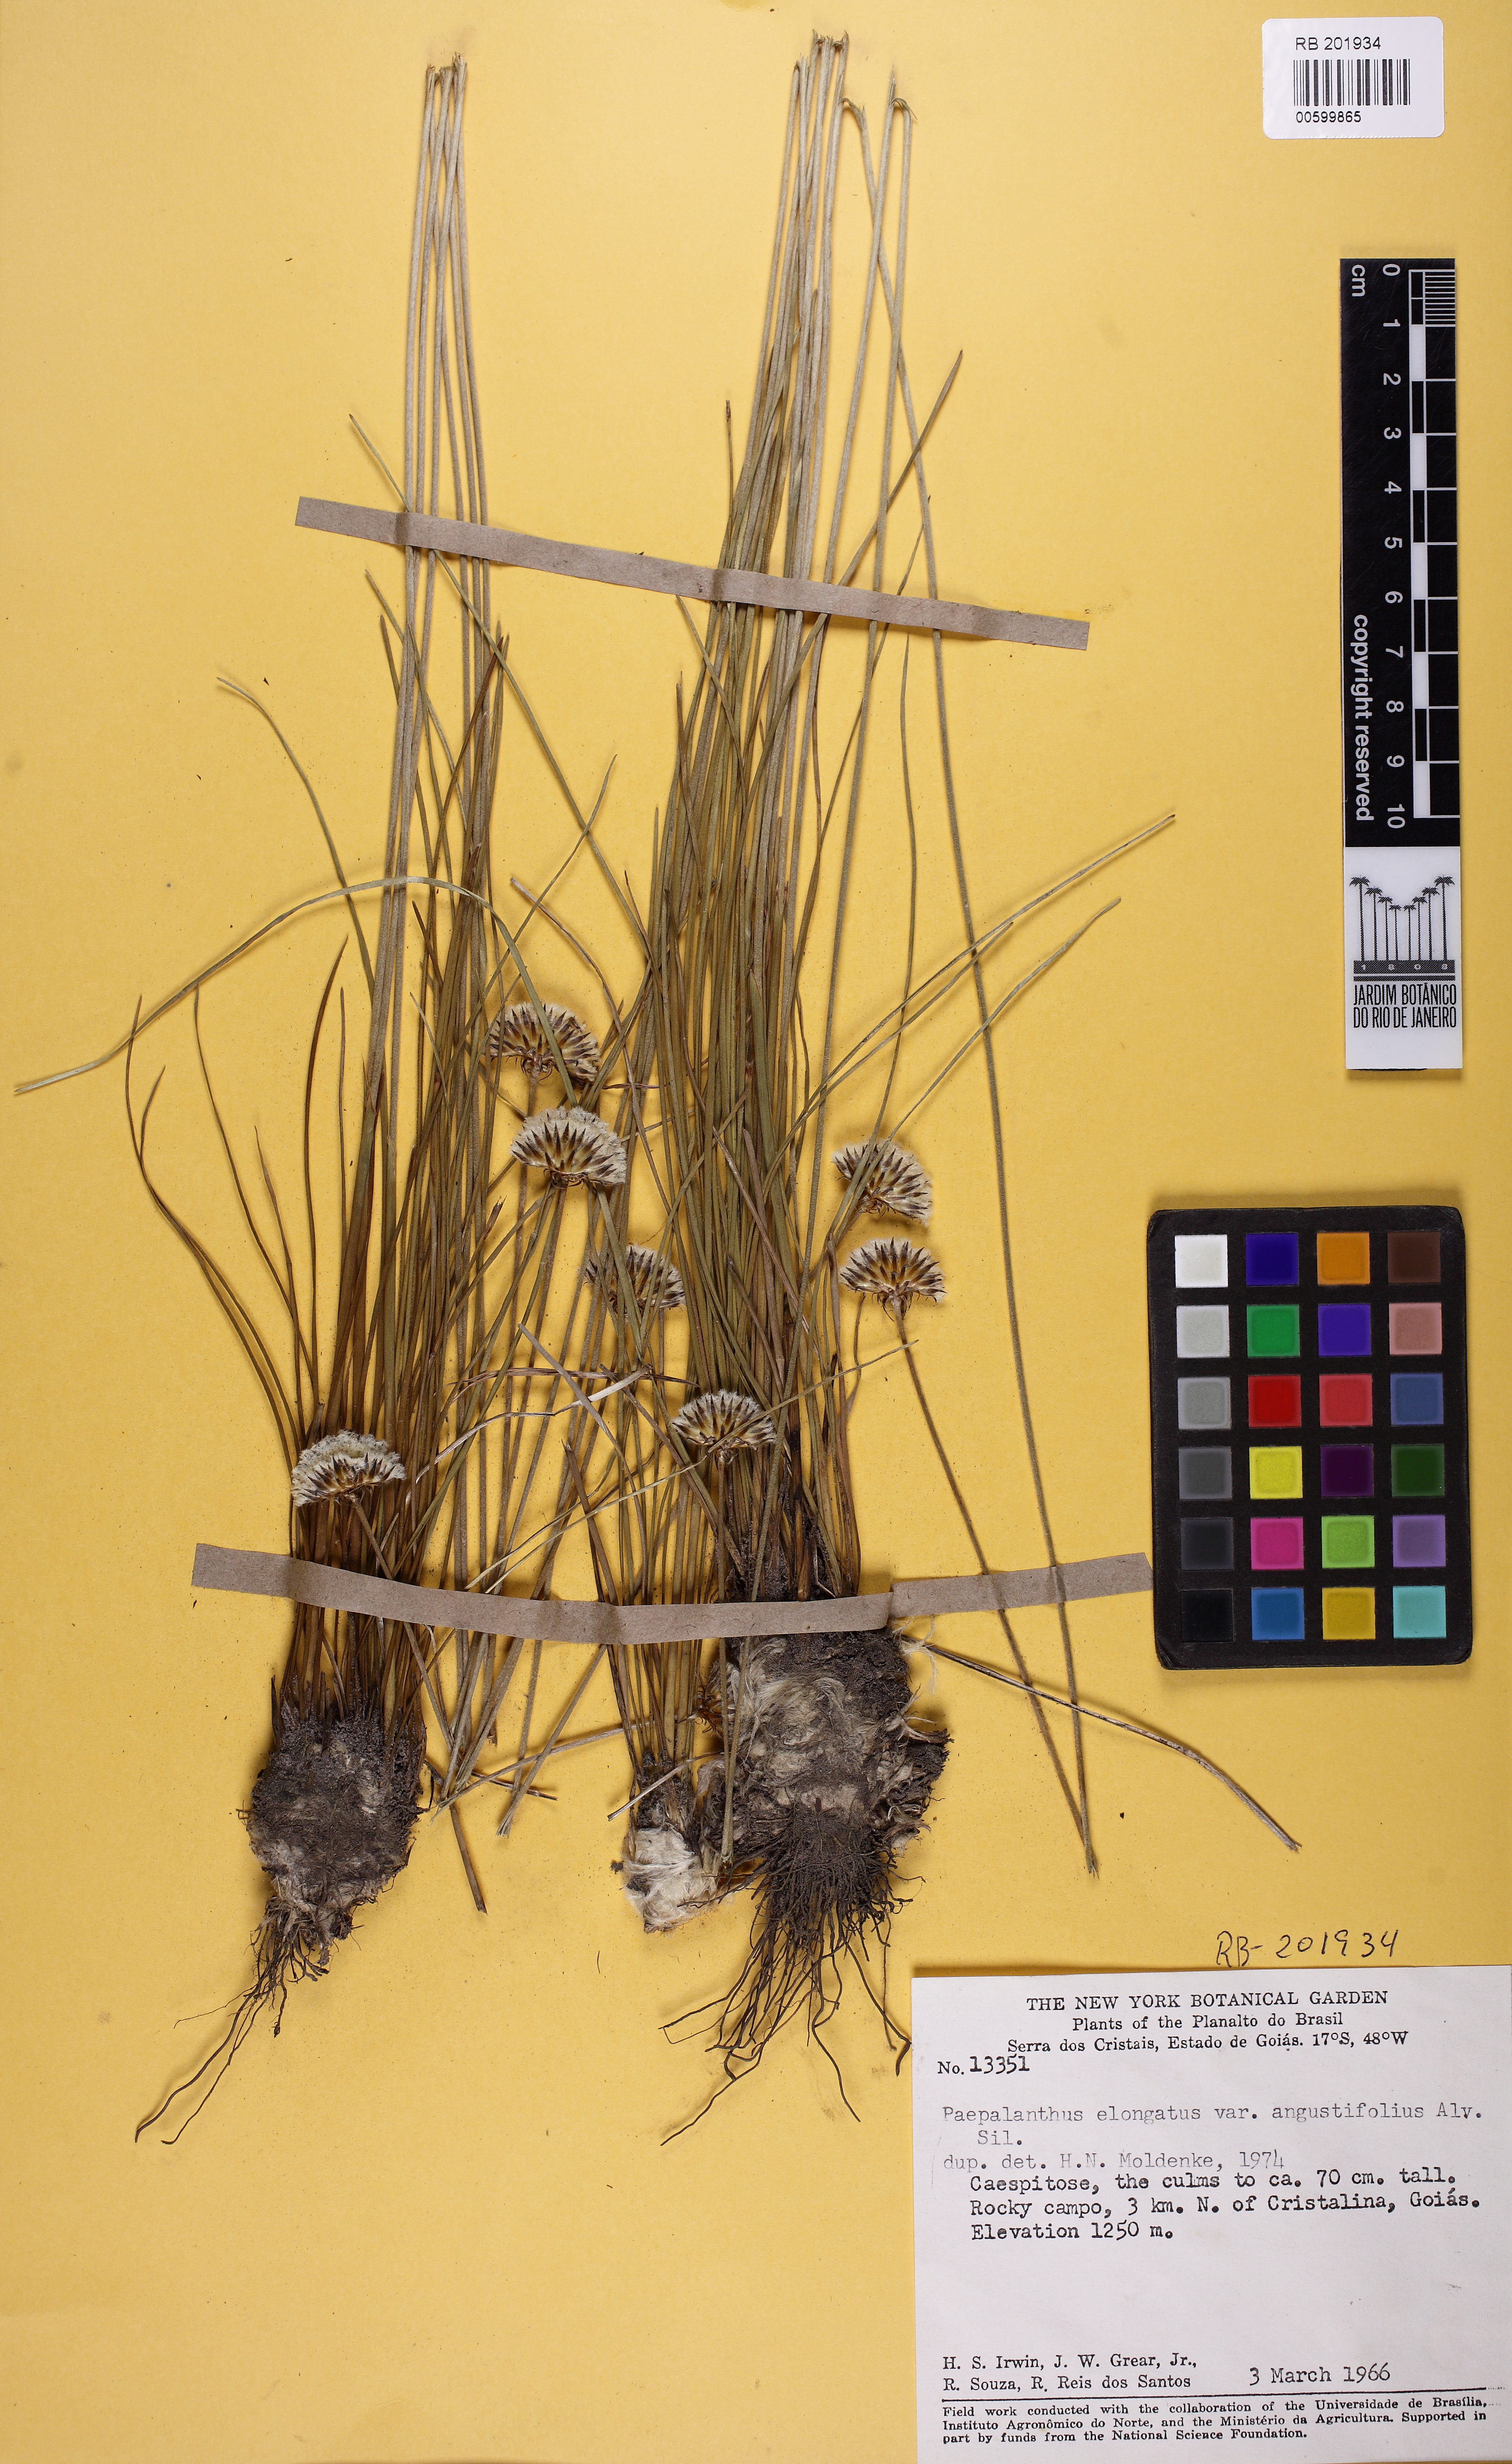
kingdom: Plantae
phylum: Tracheophyta
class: Liliopsida
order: Poales
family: Eriocaulaceae
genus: Paepalanthus
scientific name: Paepalanthus elongatus
